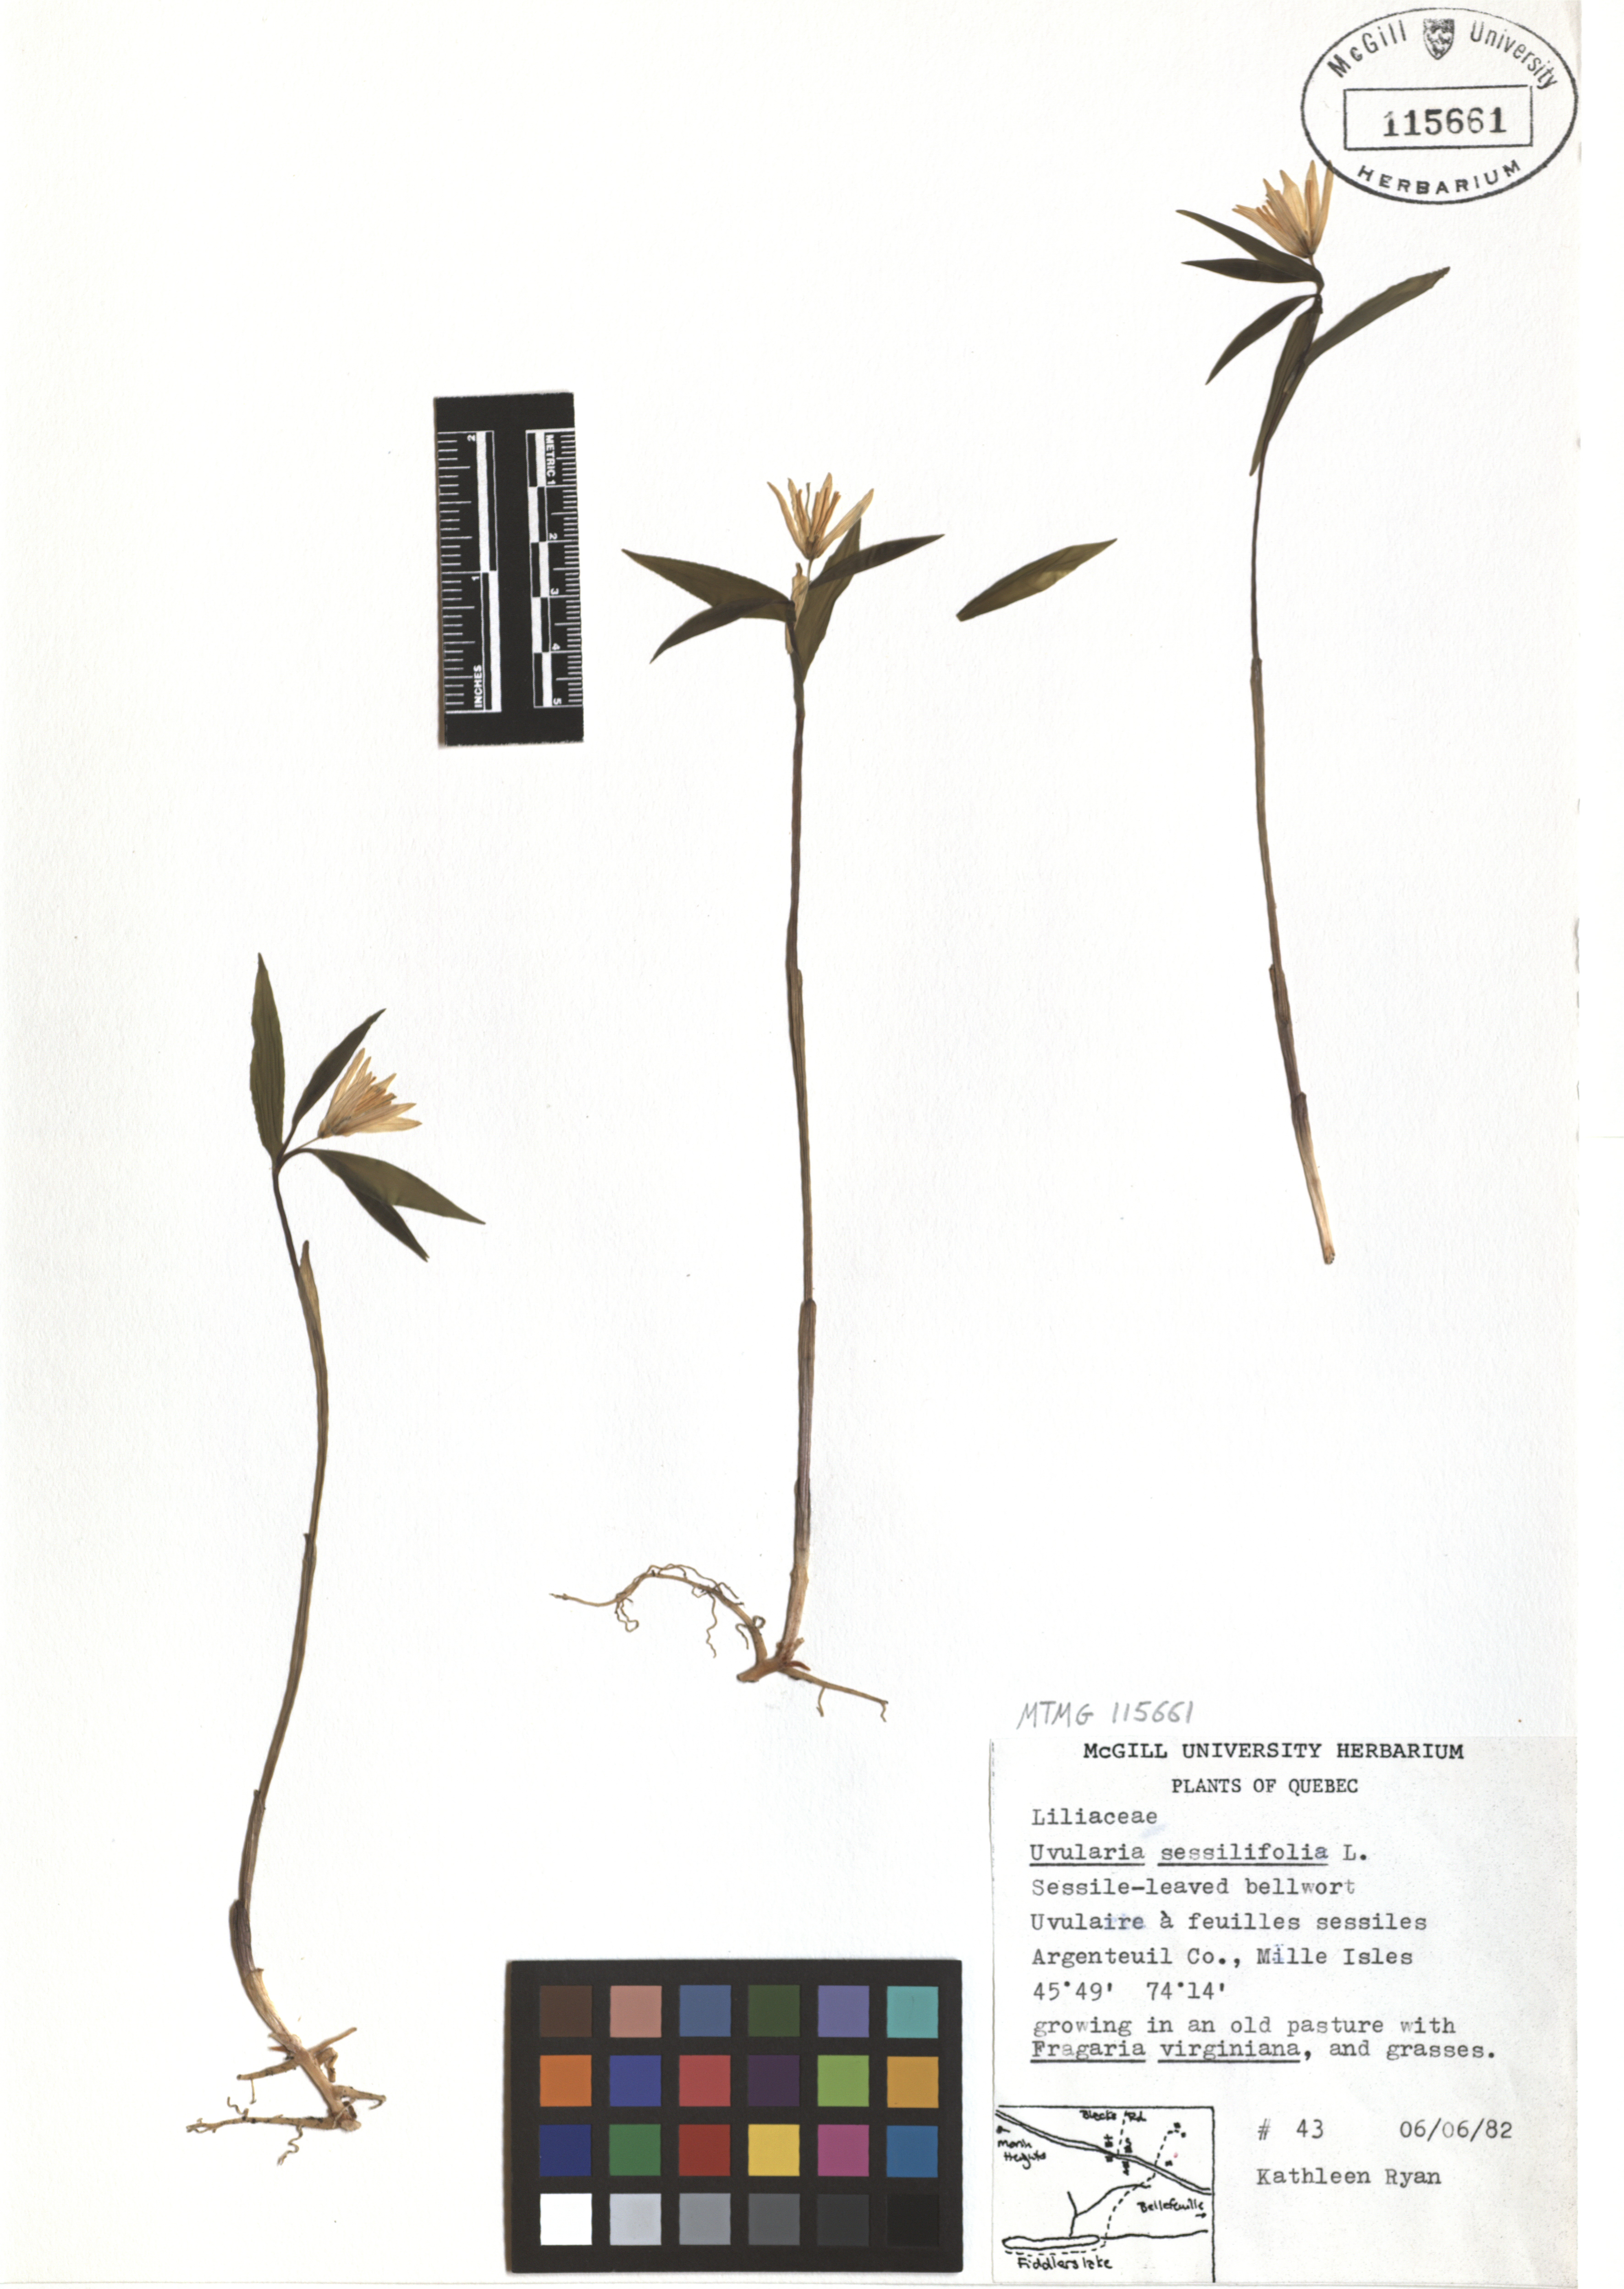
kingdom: Plantae
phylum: Tracheophyta
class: Liliopsida
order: Liliales
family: Colchicaceae
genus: Uvularia
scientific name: Uvularia sessilifolia
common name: Straw-lily
